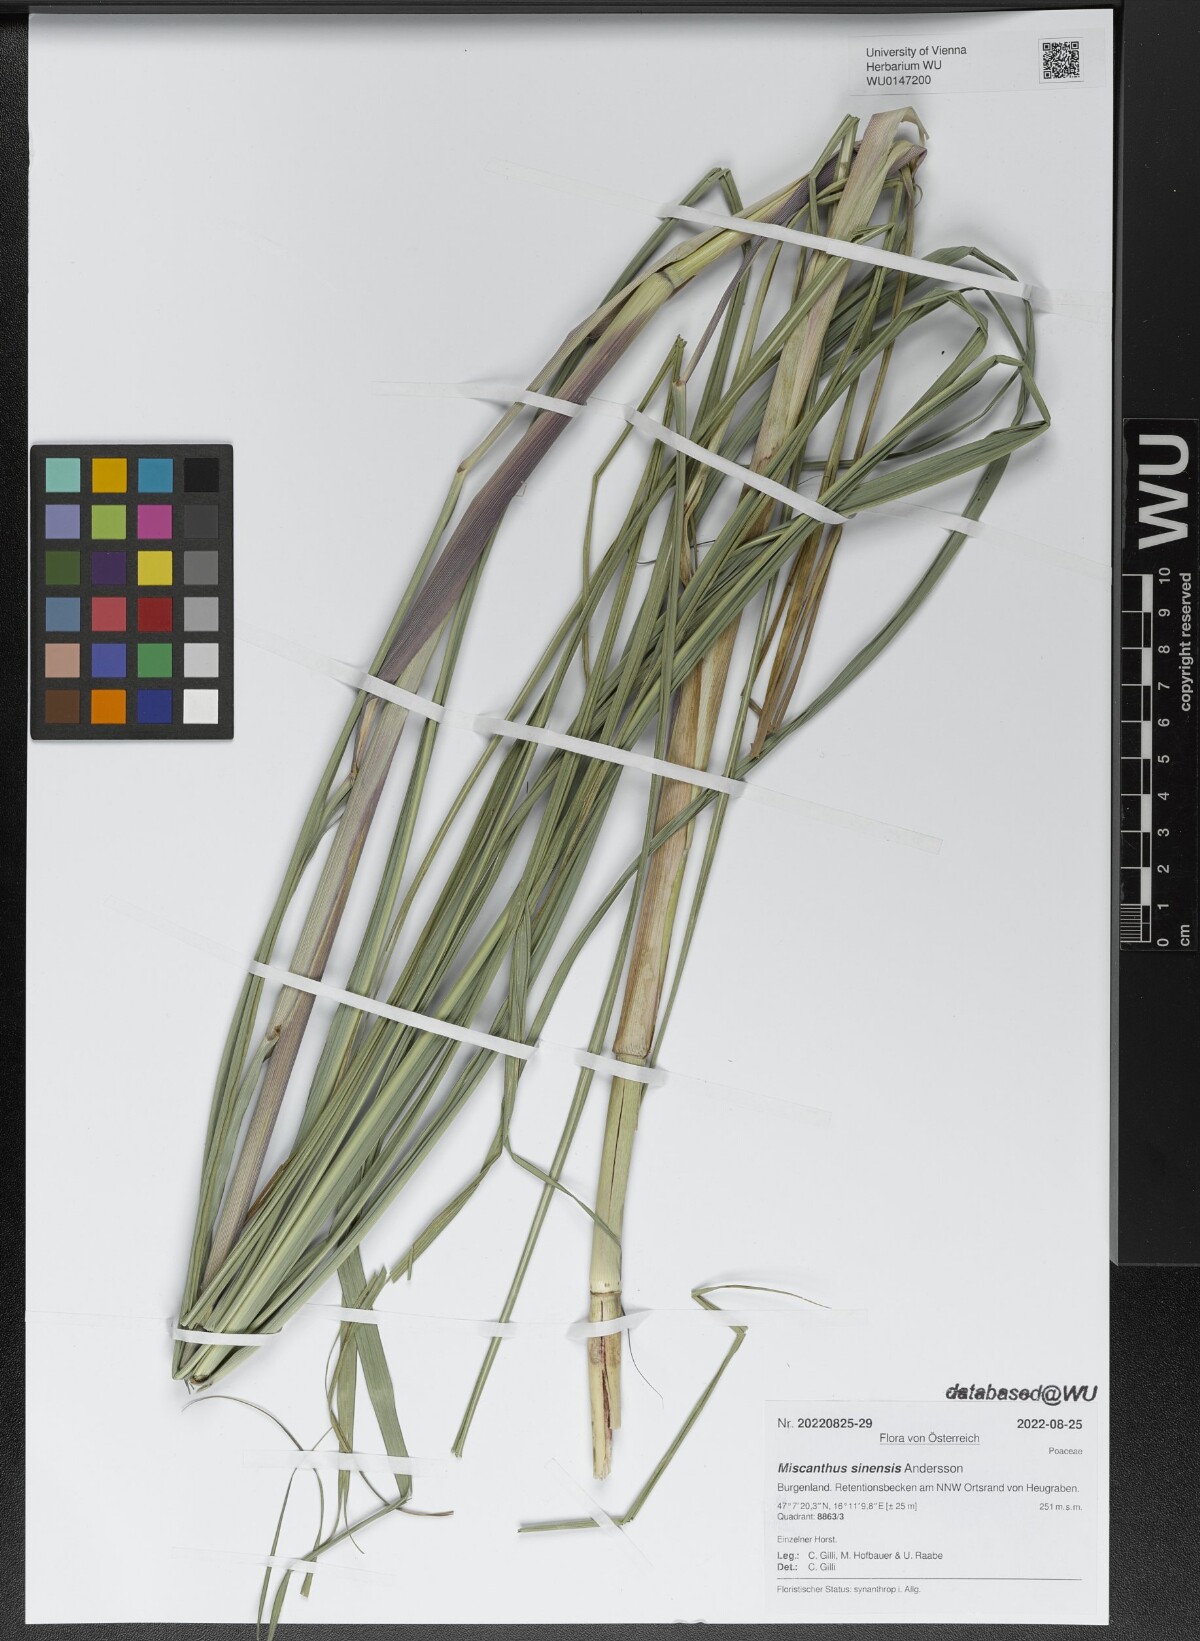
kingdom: Plantae
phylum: Tracheophyta
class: Liliopsida
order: Poales
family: Poaceae
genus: Miscanthus
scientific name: Miscanthus sinensis
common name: Chinese silvergrass
